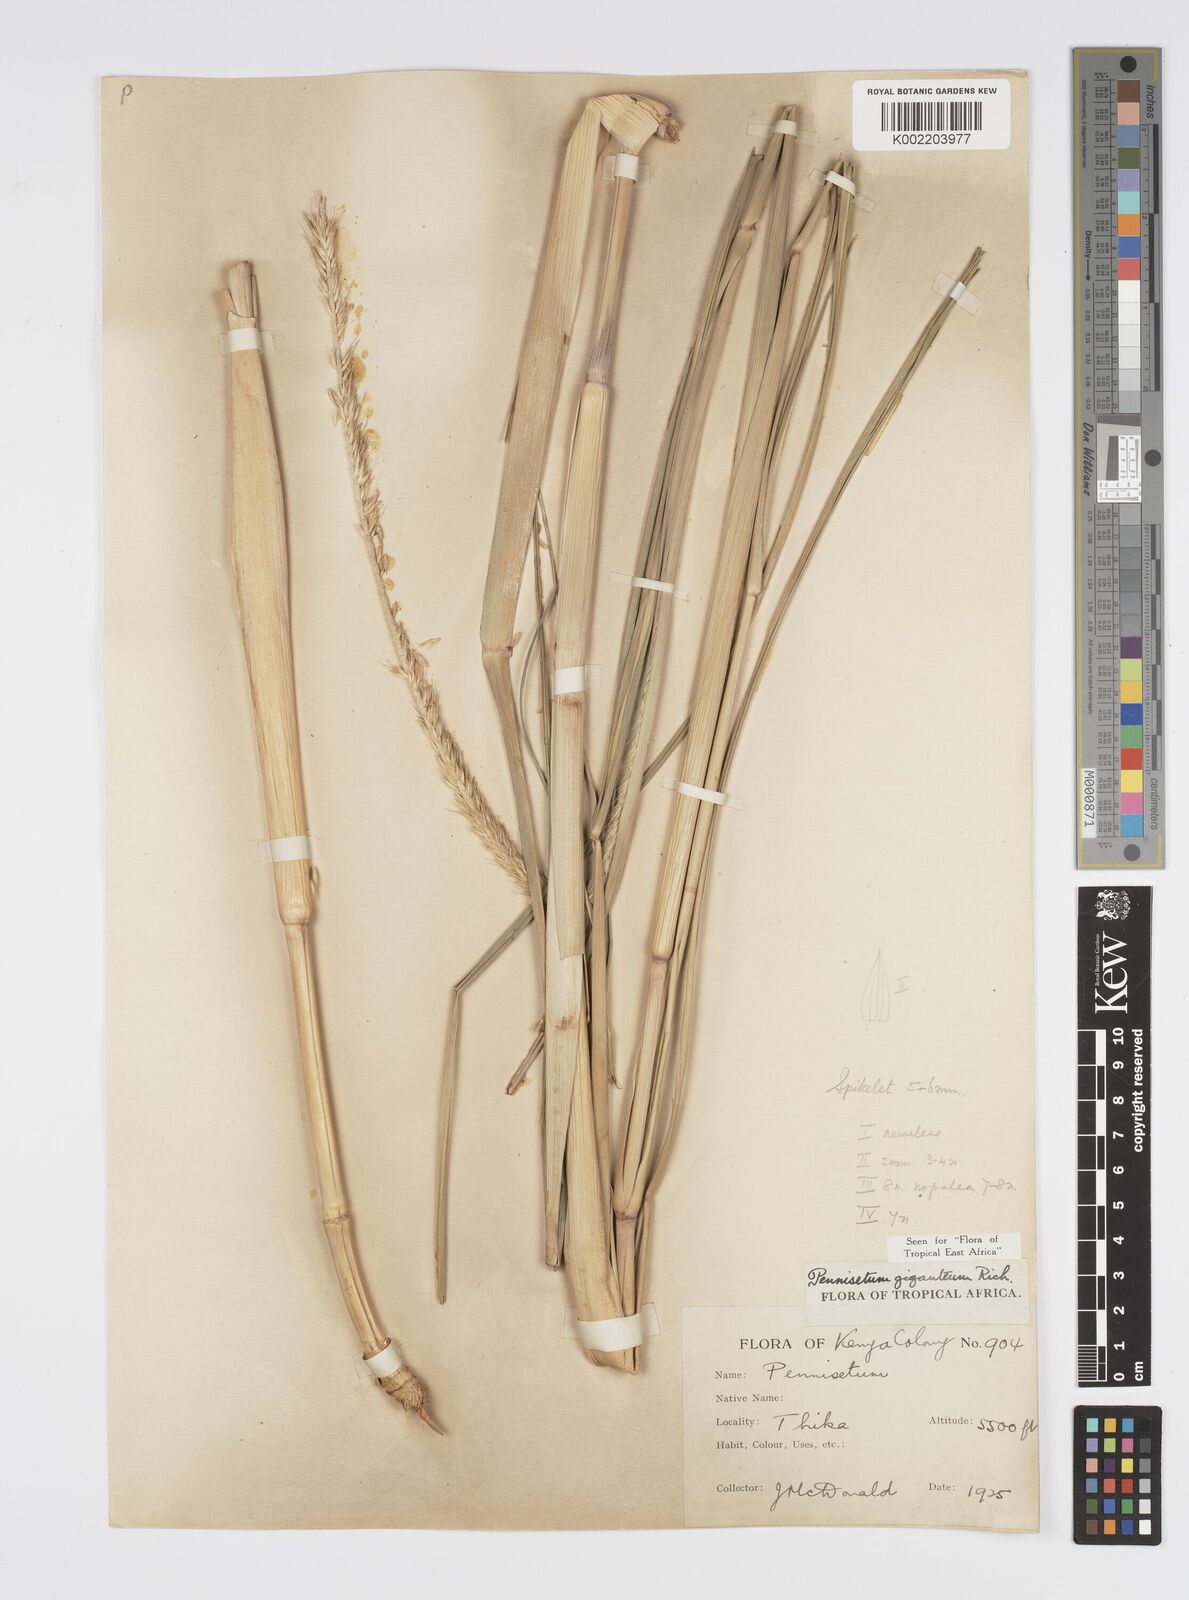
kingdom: Plantae
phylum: Tracheophyta
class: Liliopsida
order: Poales
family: Poaceae
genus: Cenchrus
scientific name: Cenchrus caudatus
